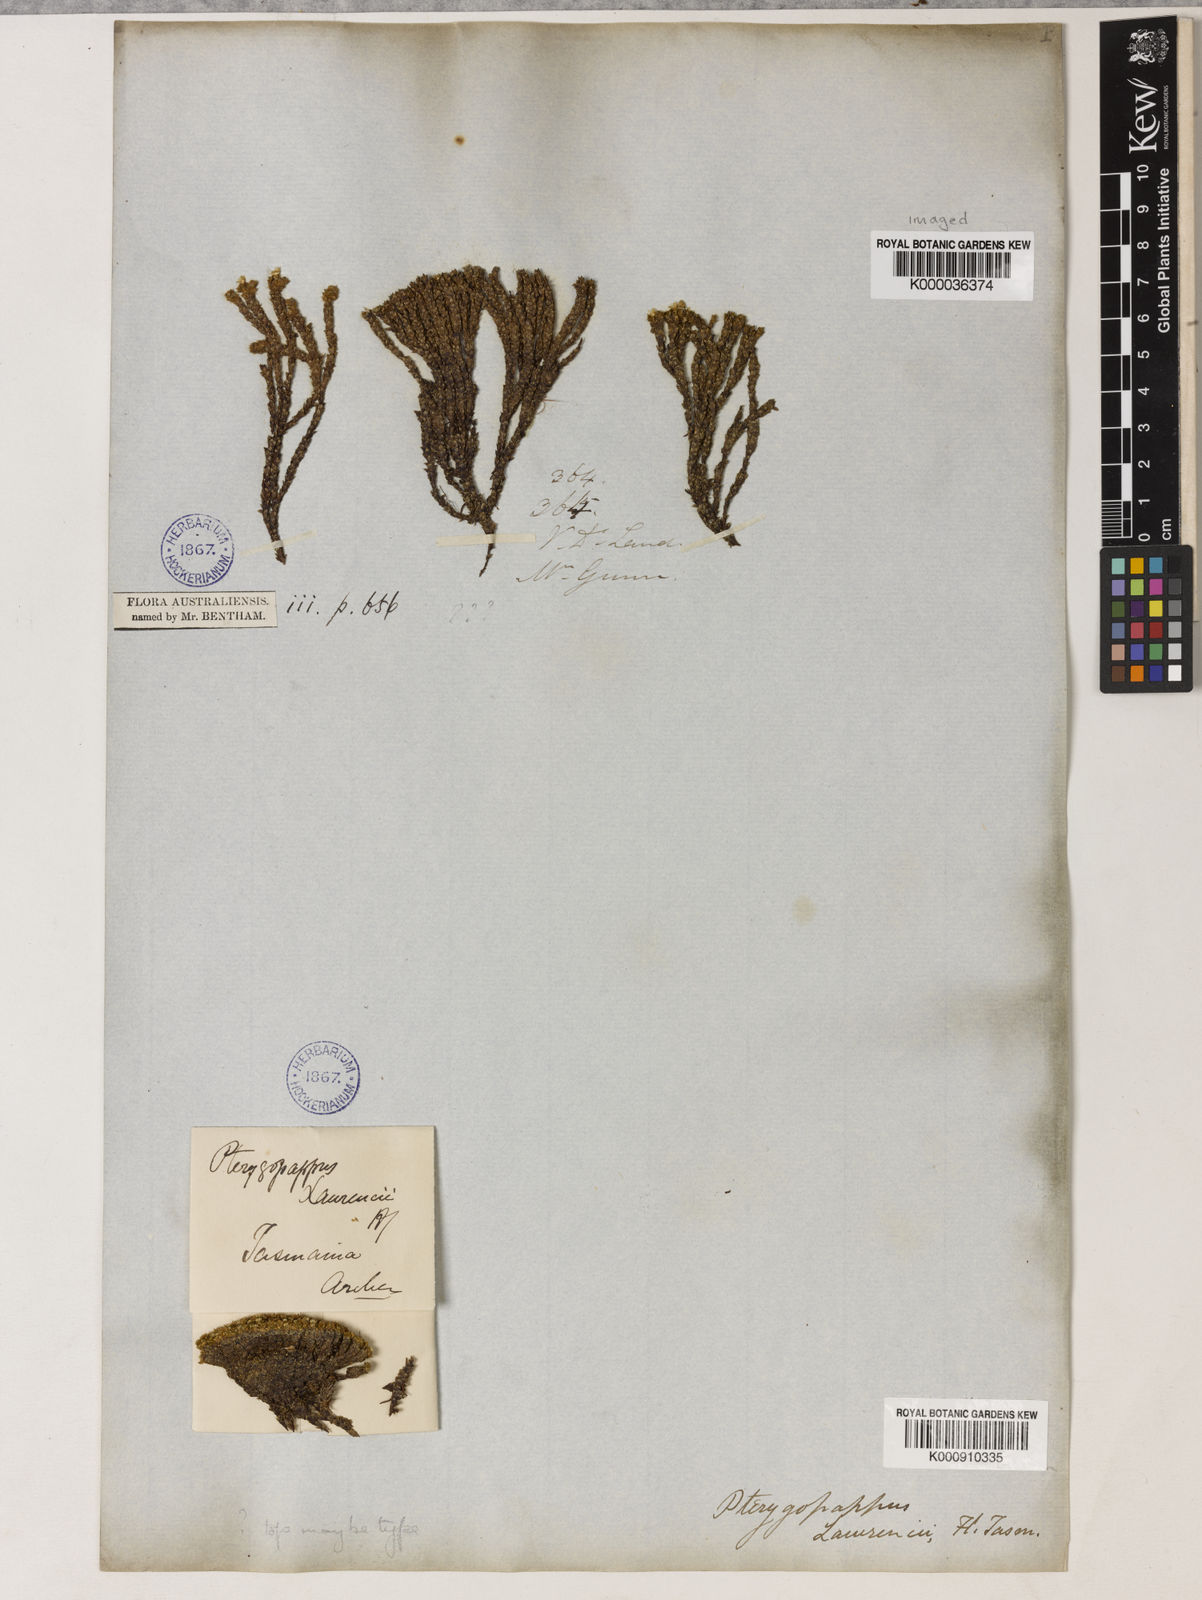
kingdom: Plantae
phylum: Tracheophyta
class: Magnoliopsida
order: Asterales
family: Asteraceae
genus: Pterygopappus
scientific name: Pterygopappus
